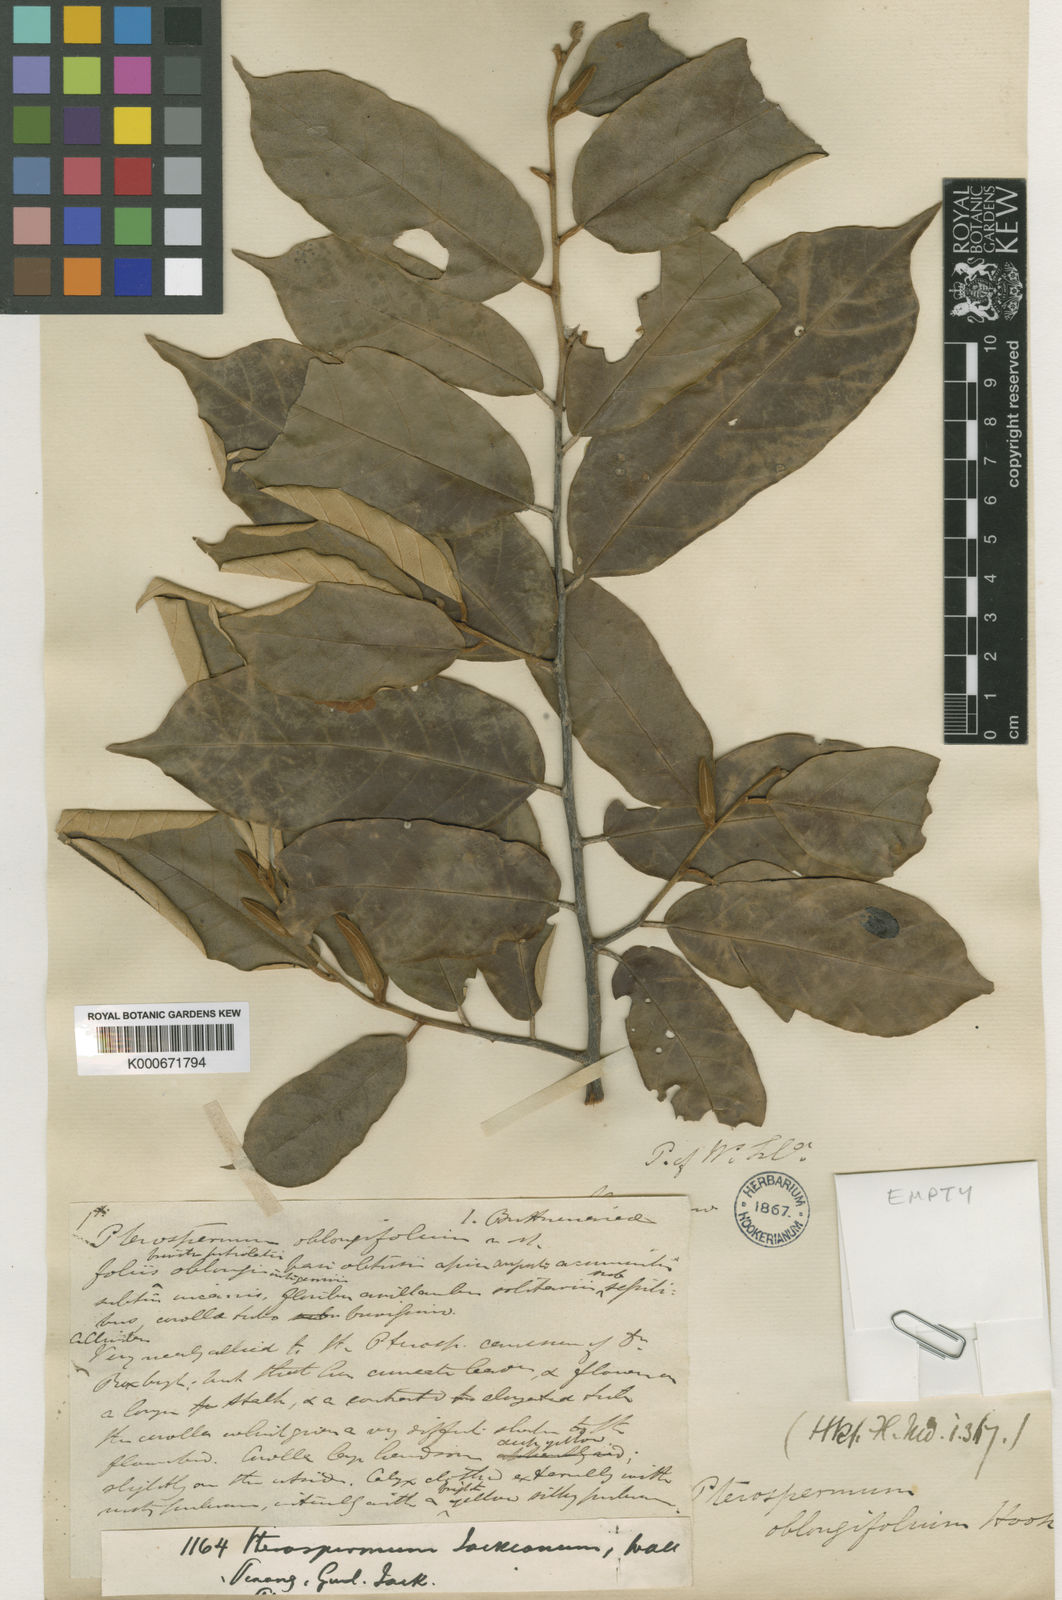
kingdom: Plantae
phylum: Tracheophyta
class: Magnoliopsida
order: Malvales
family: Malvaceae
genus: Pterospermum
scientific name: Pterospermum
